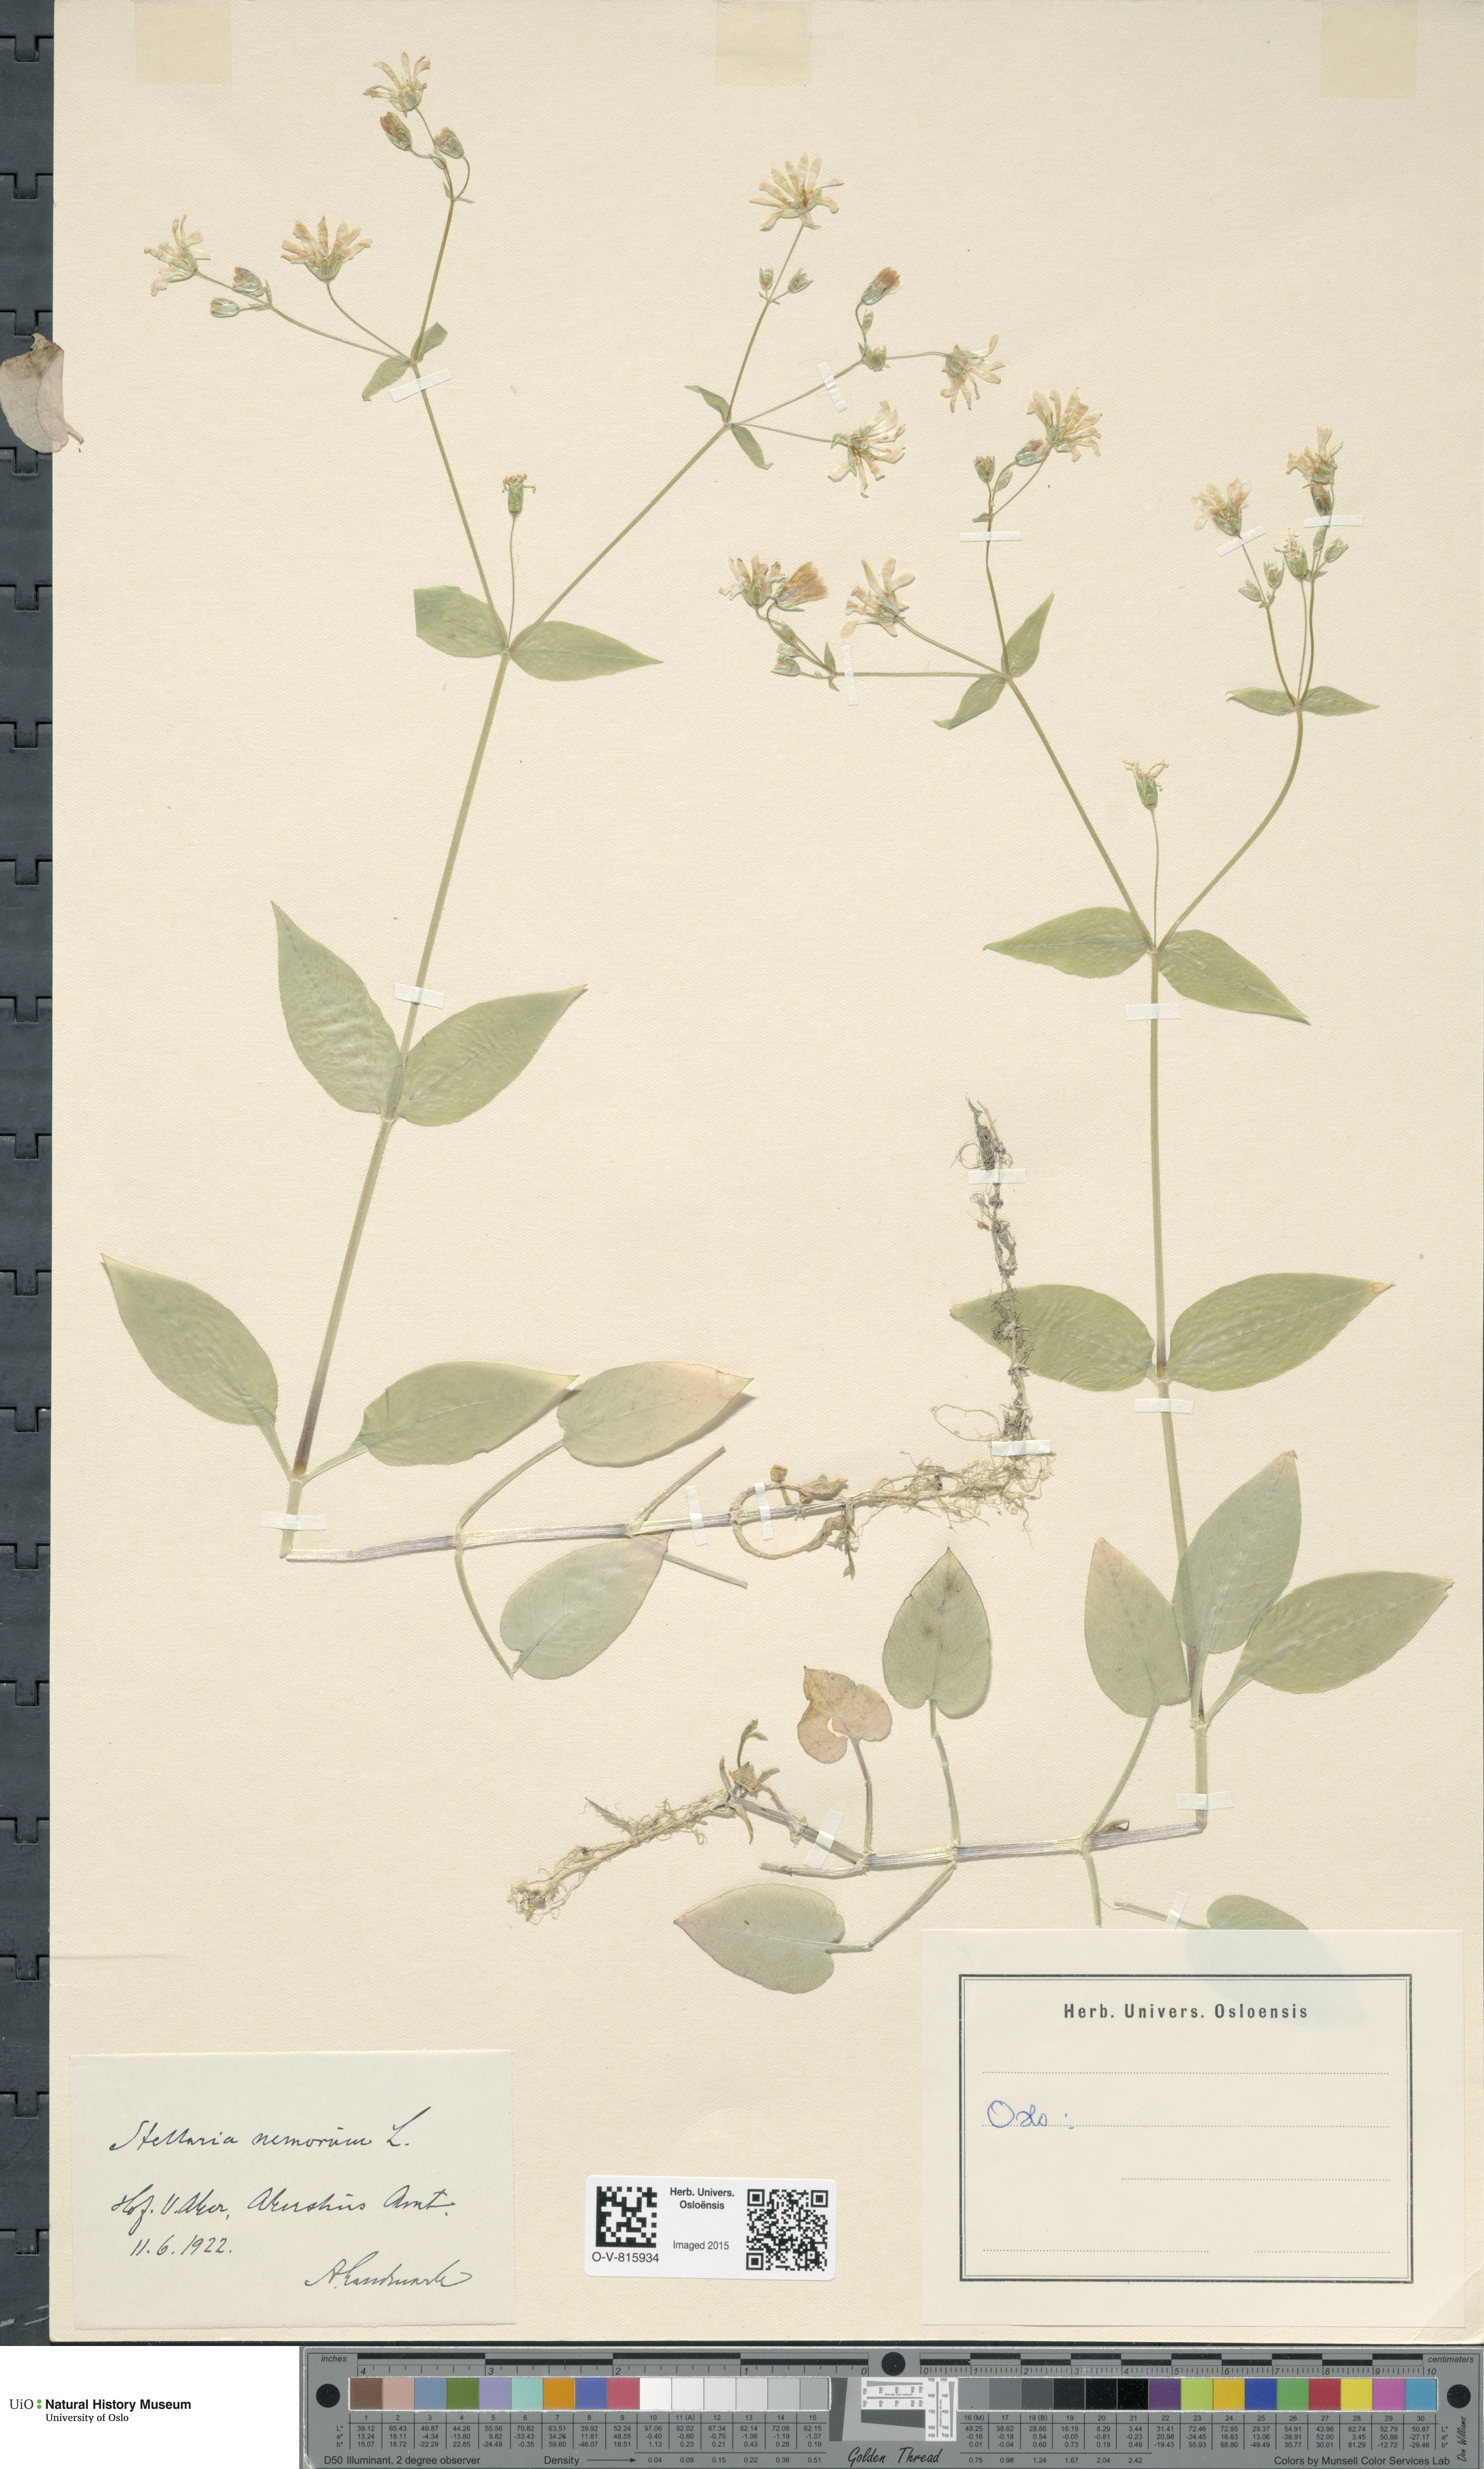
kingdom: Plantae
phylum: Tracheophyta
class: Magnoliopsida
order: Caryophyllales
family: Caryophyllaceae
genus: Stellaria
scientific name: Stellaria nemorum
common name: Wood stitchwort
